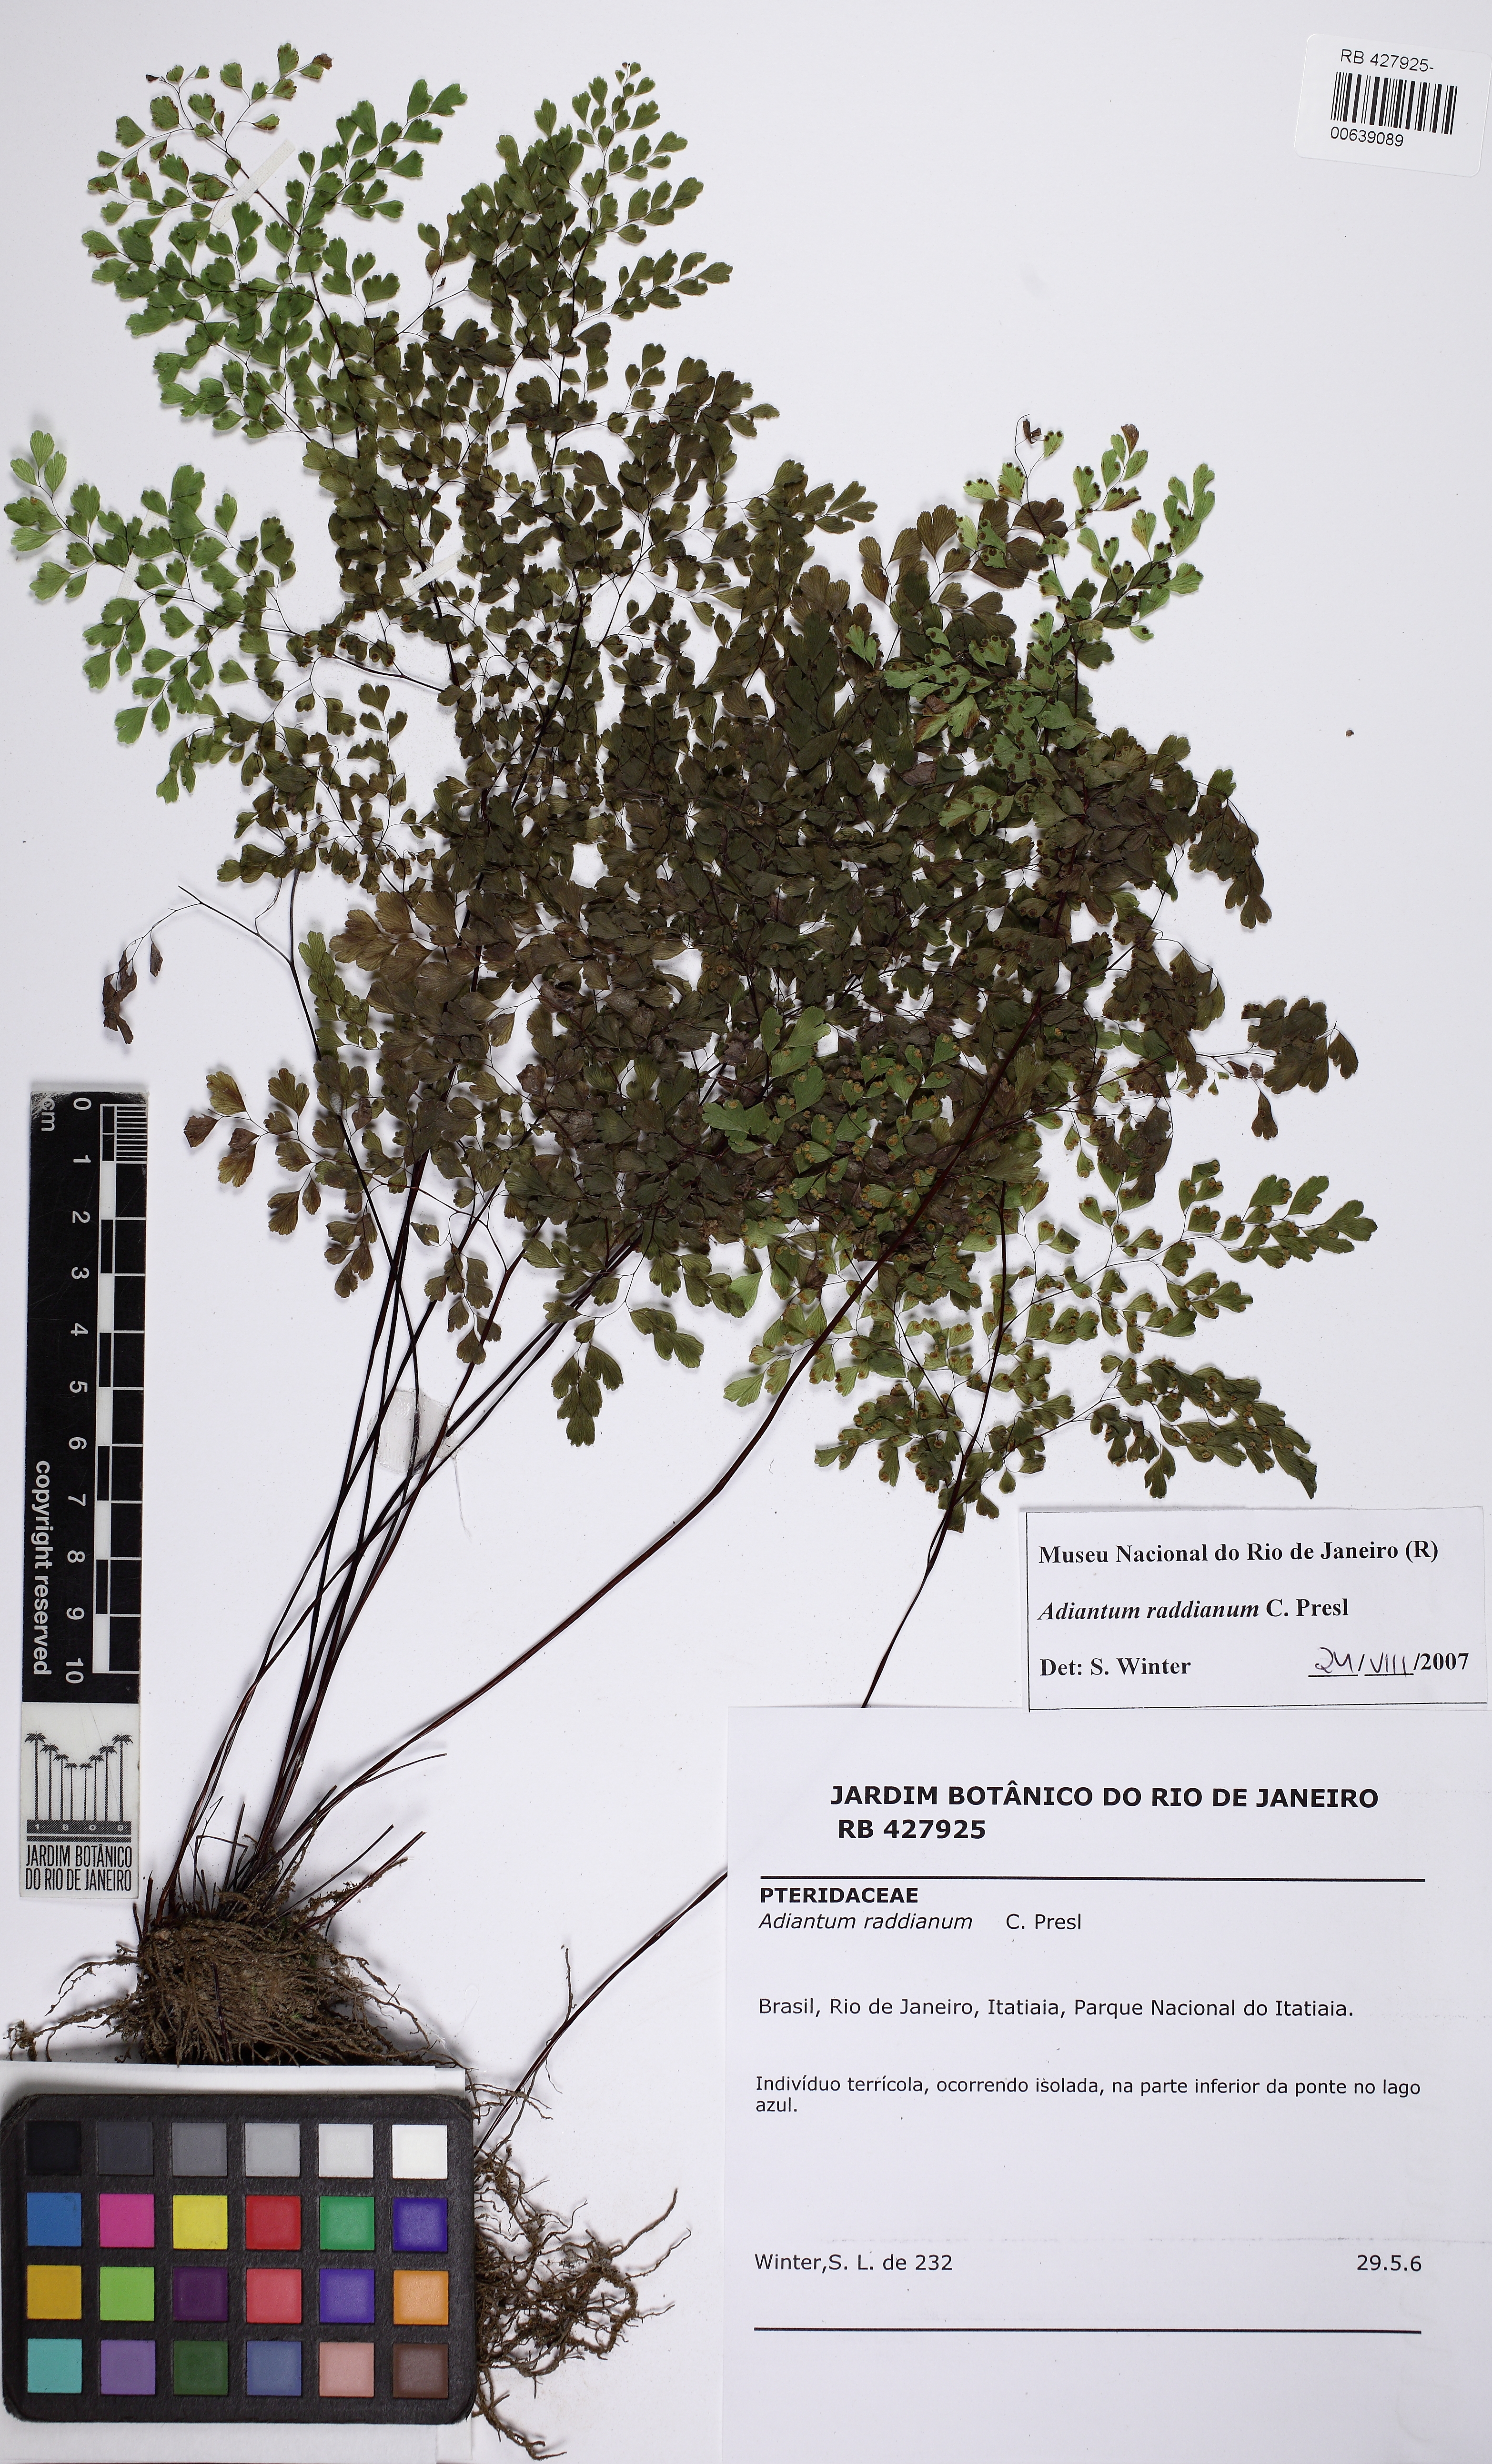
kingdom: Plantae
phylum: Tracheophyta
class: Polypodiopsida
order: Polypodiales
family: Pteridaceae
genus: Adiantum
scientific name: Adiantum raddianum
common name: Delta maidenhair fern
